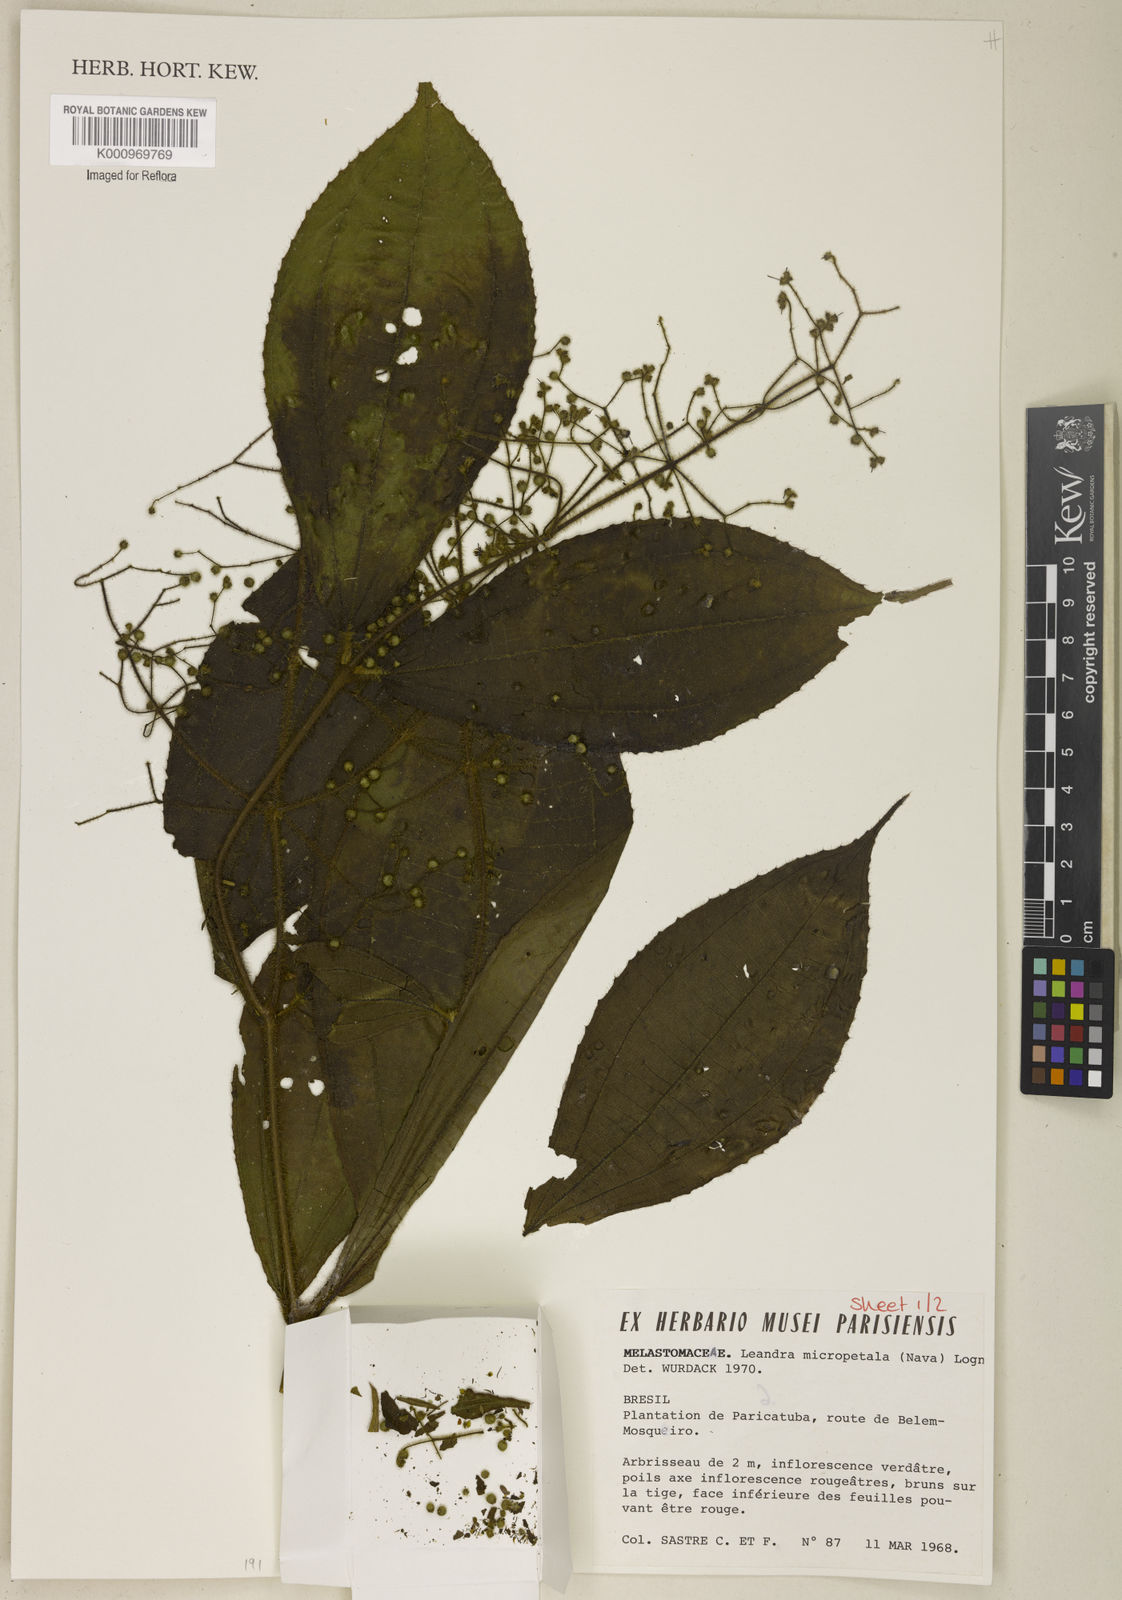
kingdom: Plantae
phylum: Tracheophyta
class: Magnoliopsida
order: Myrtales
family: Melastomataceae
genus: Miconia
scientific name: Miconia nanopetala
